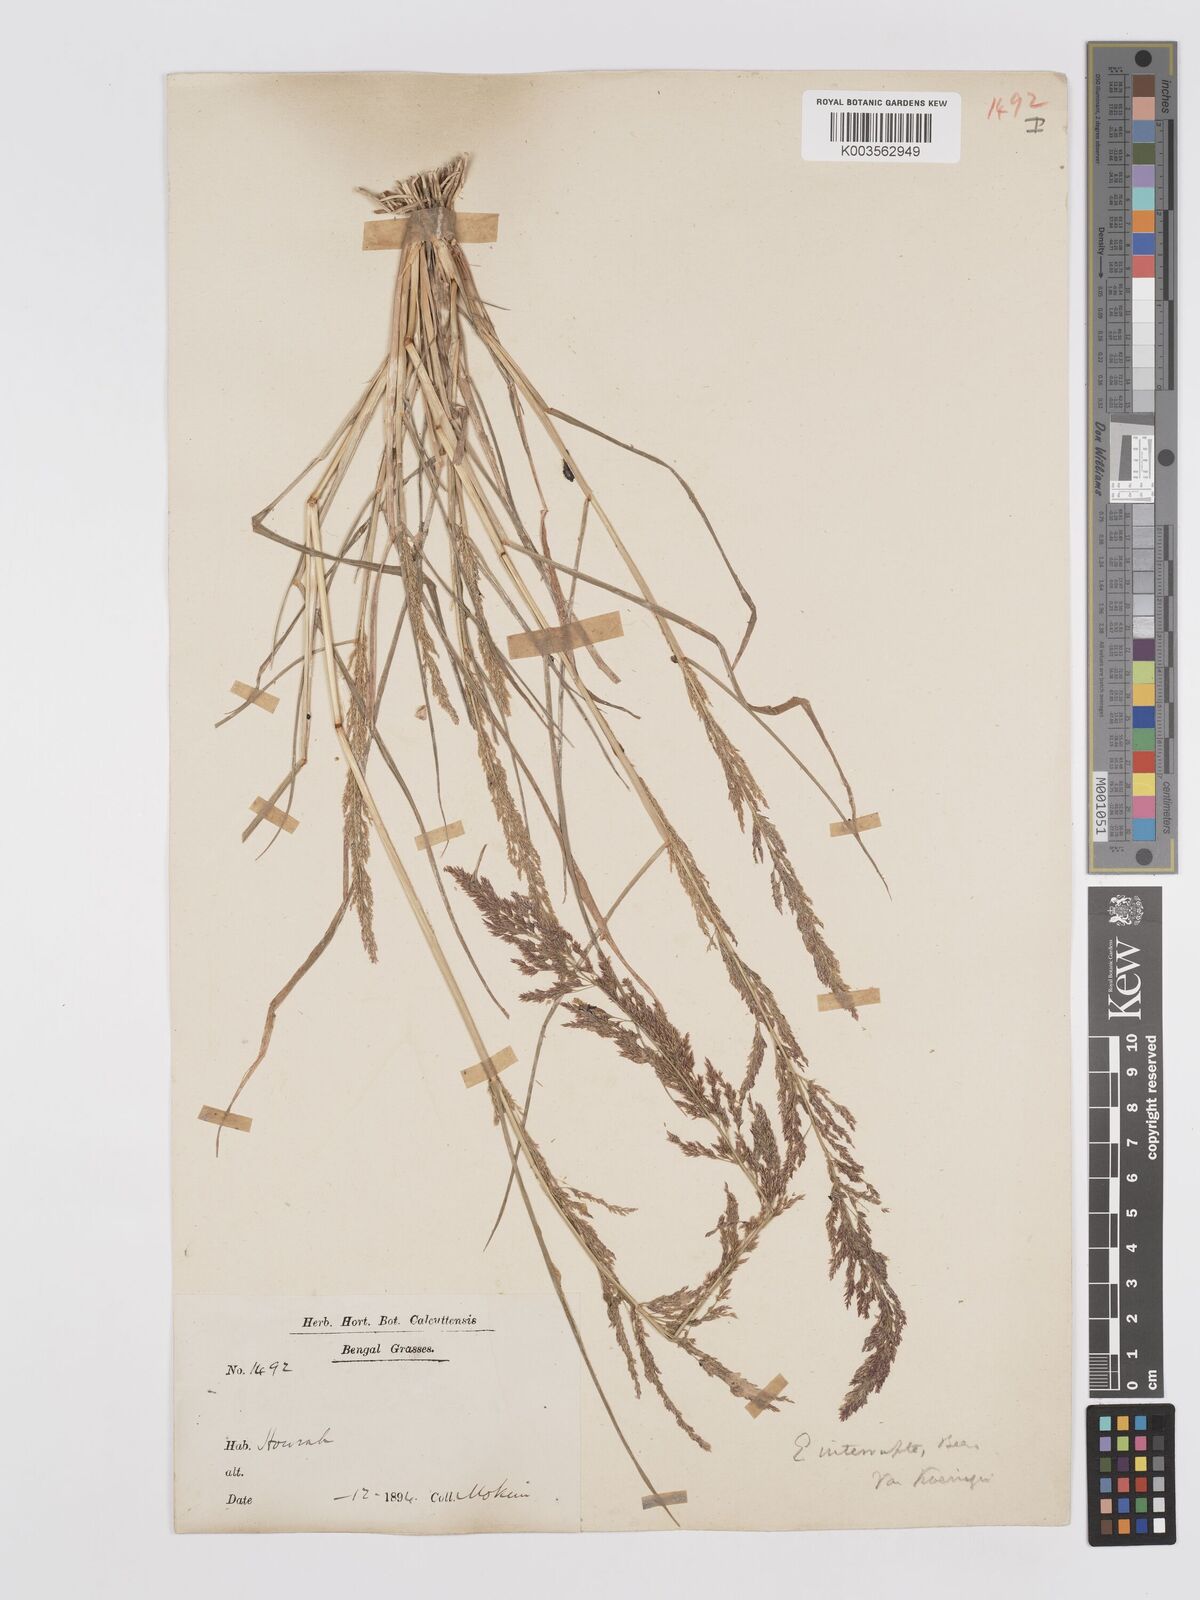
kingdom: Plantae
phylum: Tracheophyta
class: Liliopsida
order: Poales
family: Poaceae
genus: Eragrostis
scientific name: Eragrostis japonica
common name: Pond lovegrass
